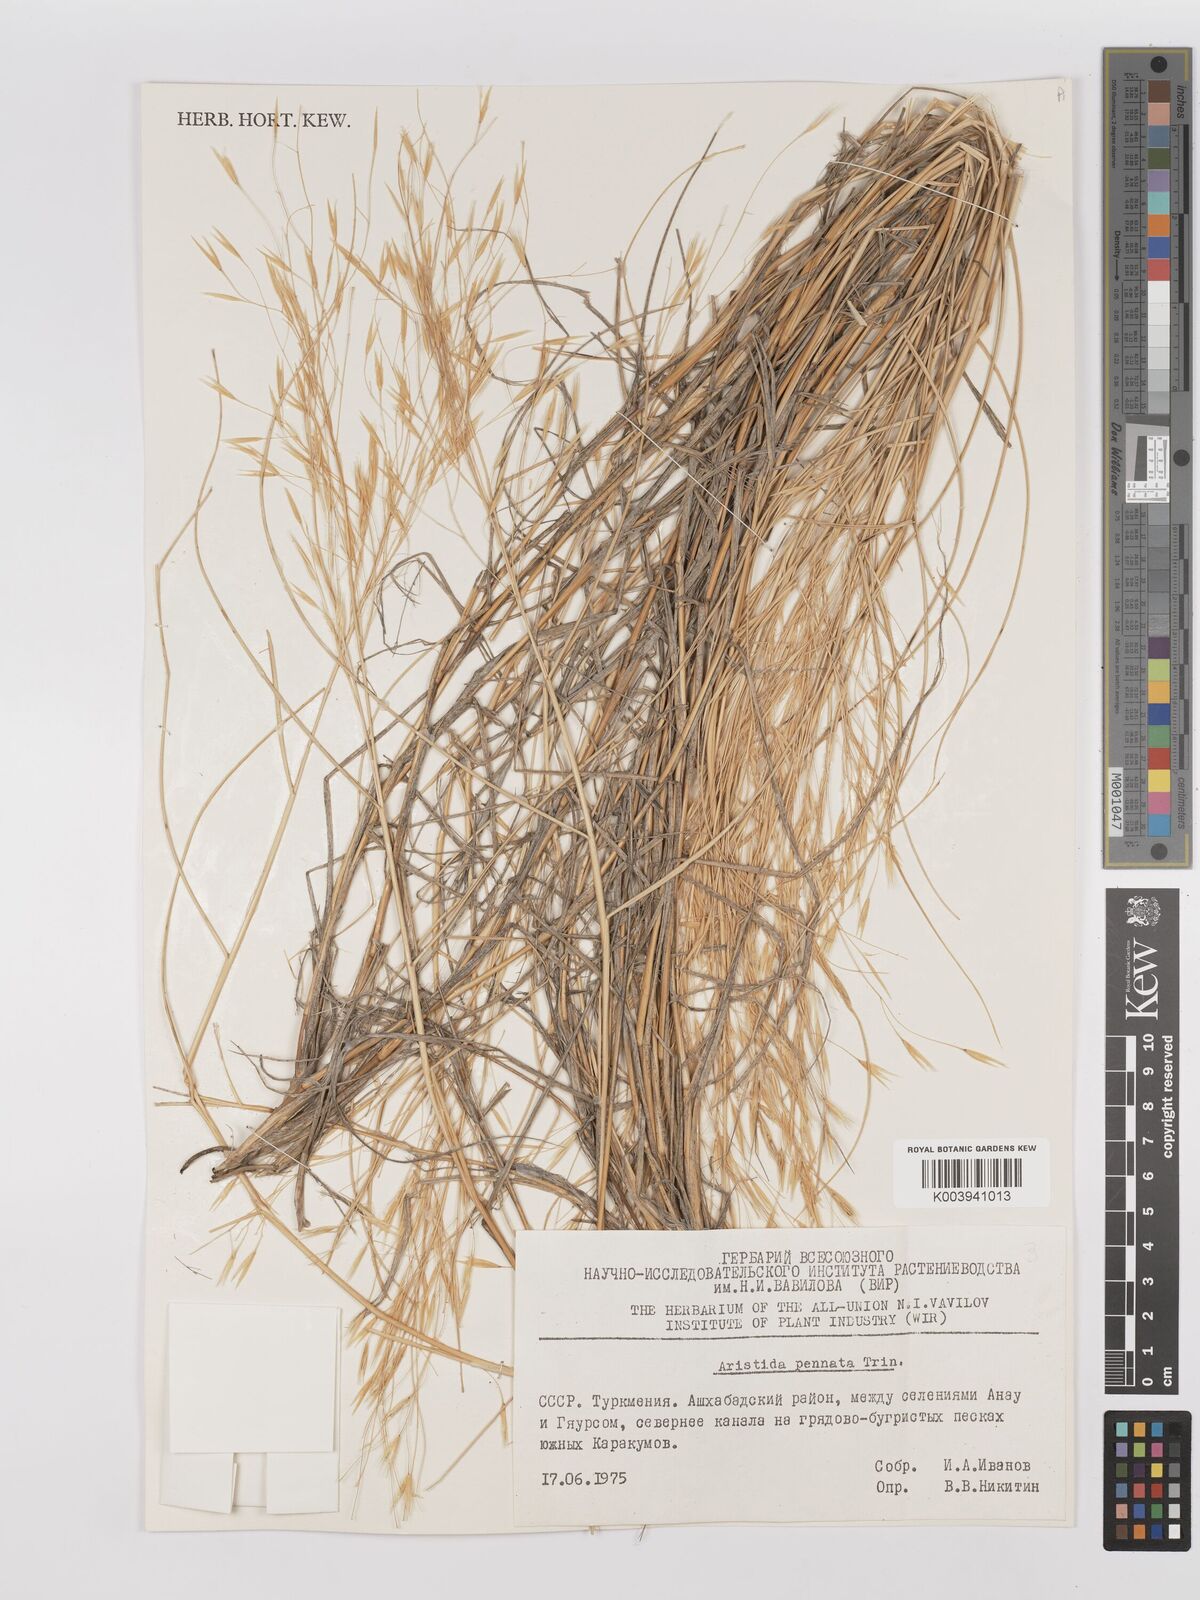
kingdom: Plantae
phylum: Tracheophyta
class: Liliopsida
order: Poales
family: Poaceae
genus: Stipagrostis
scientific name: Stipagrostis pennata
